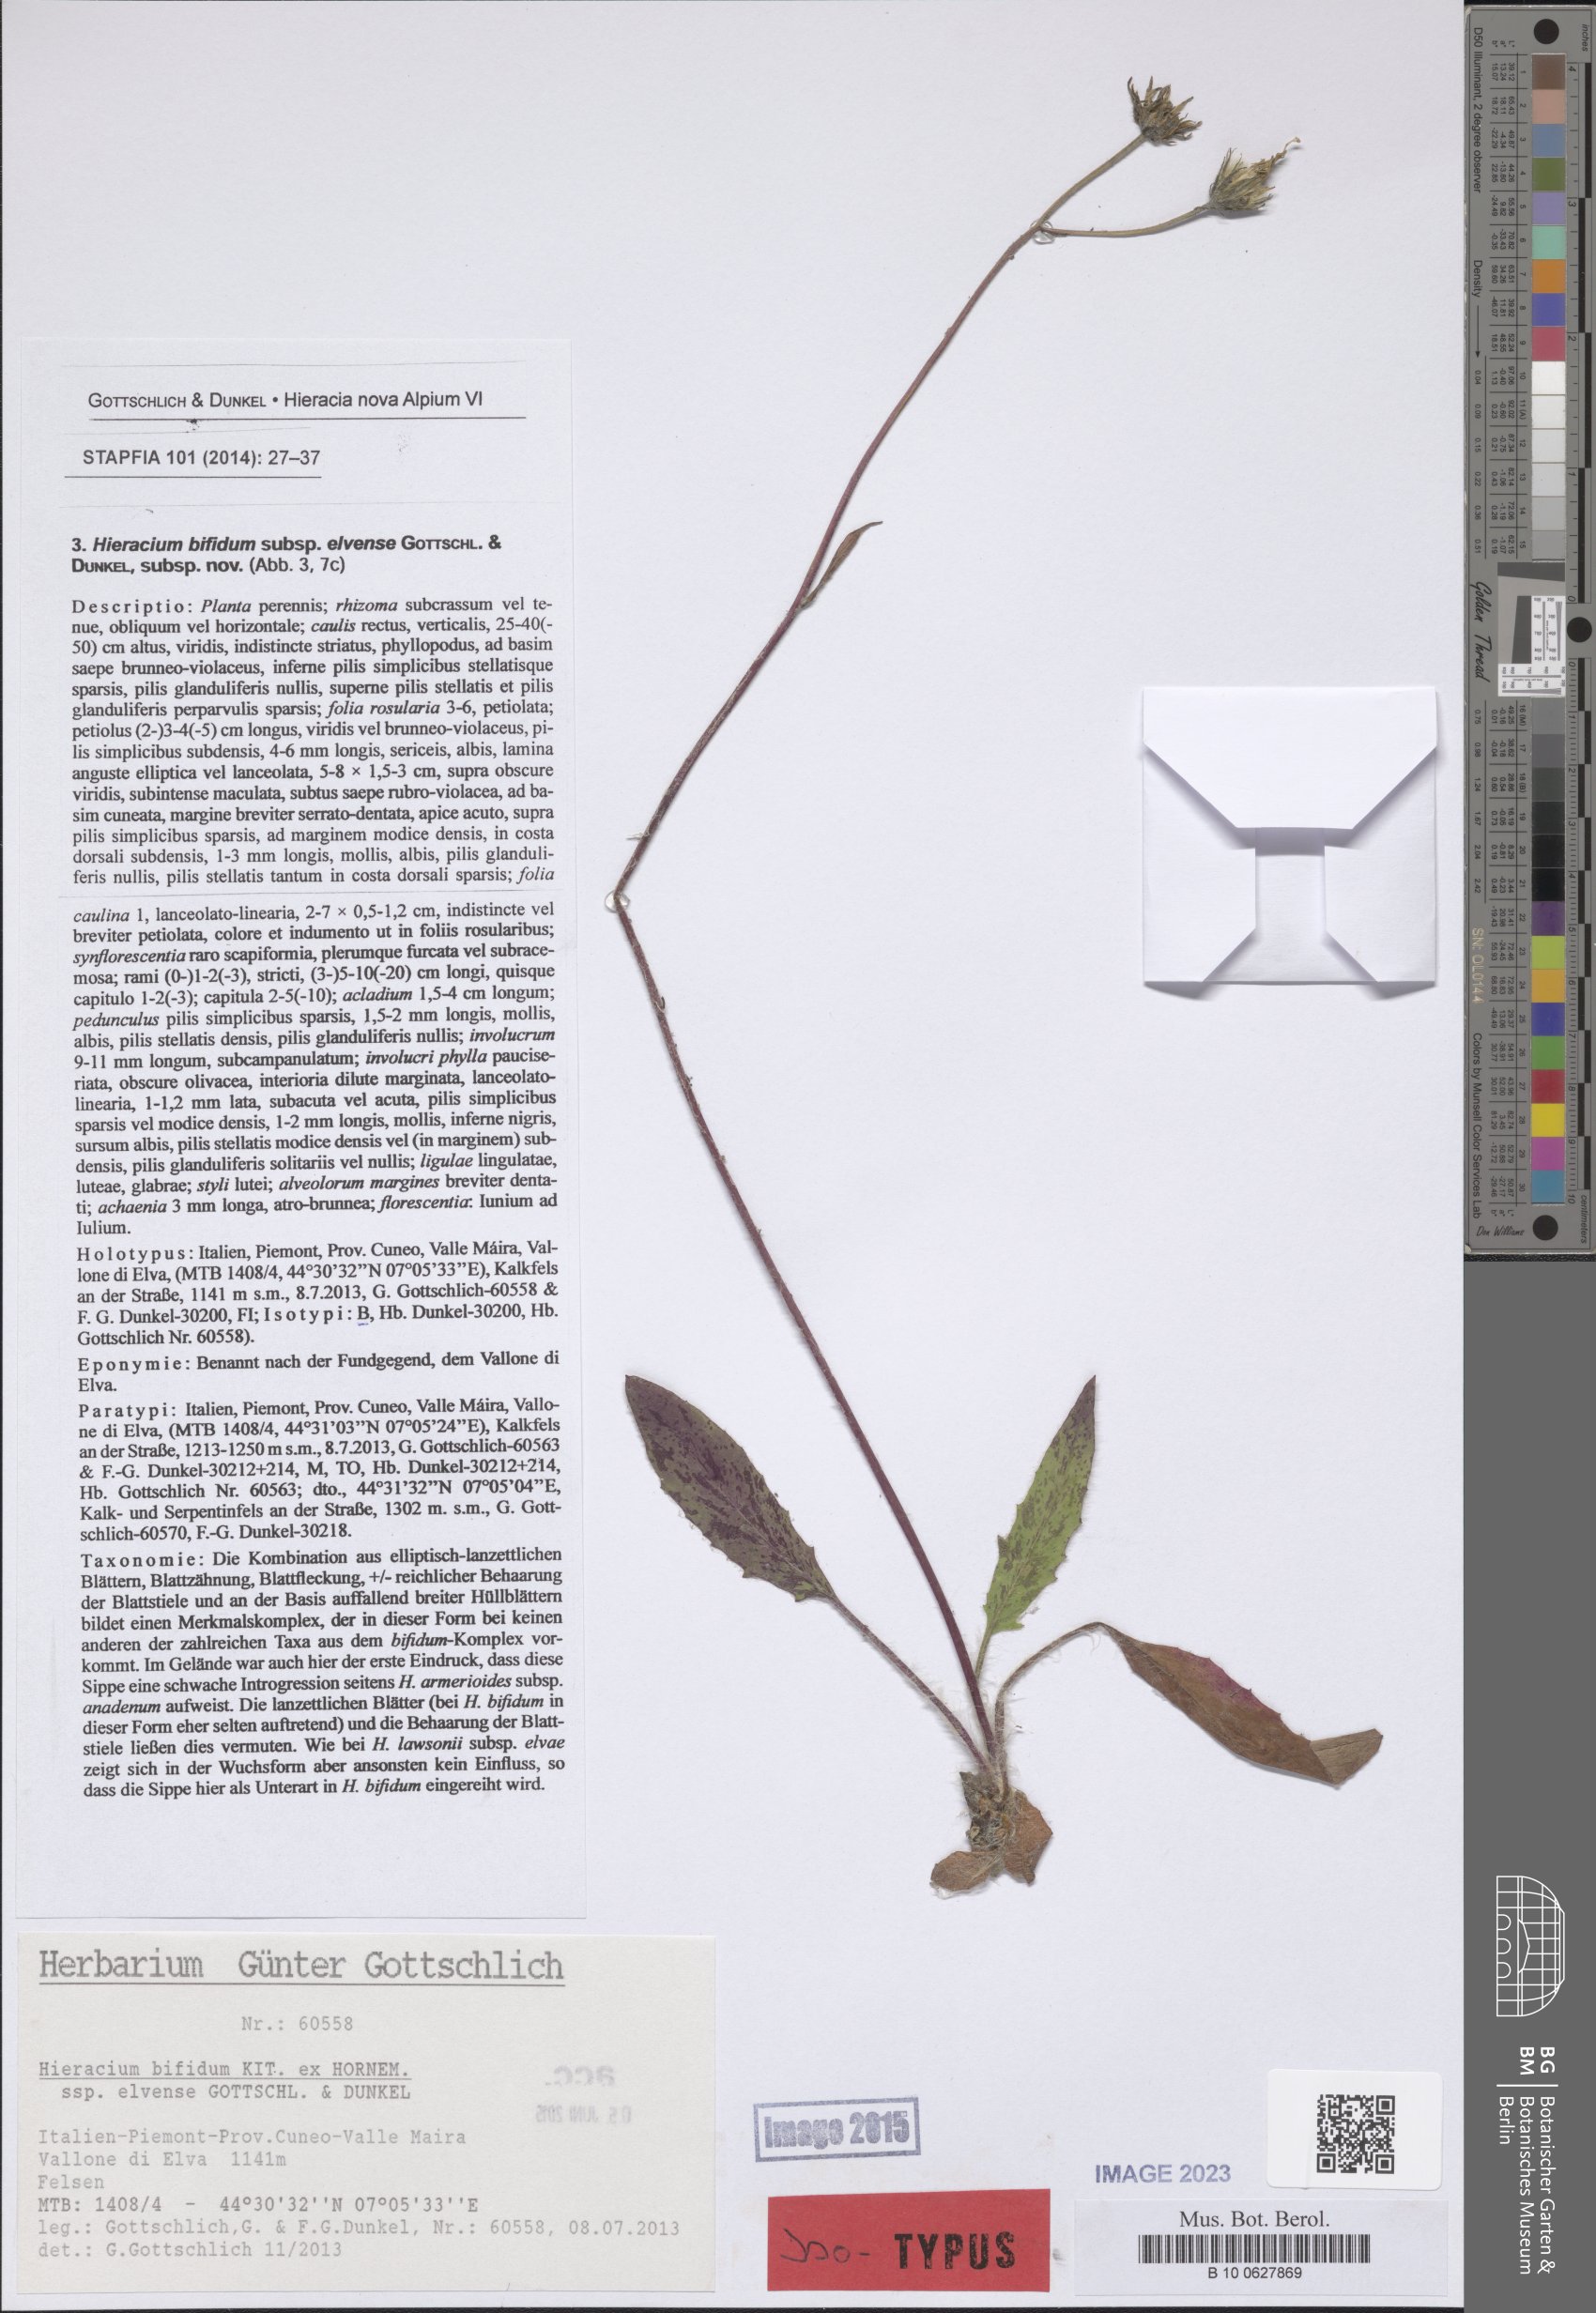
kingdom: Plantae
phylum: Tracheophyta
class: Magnoliopsida
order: Asterales
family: Asteraceae
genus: Hieracium
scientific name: Hieracium bifidum
